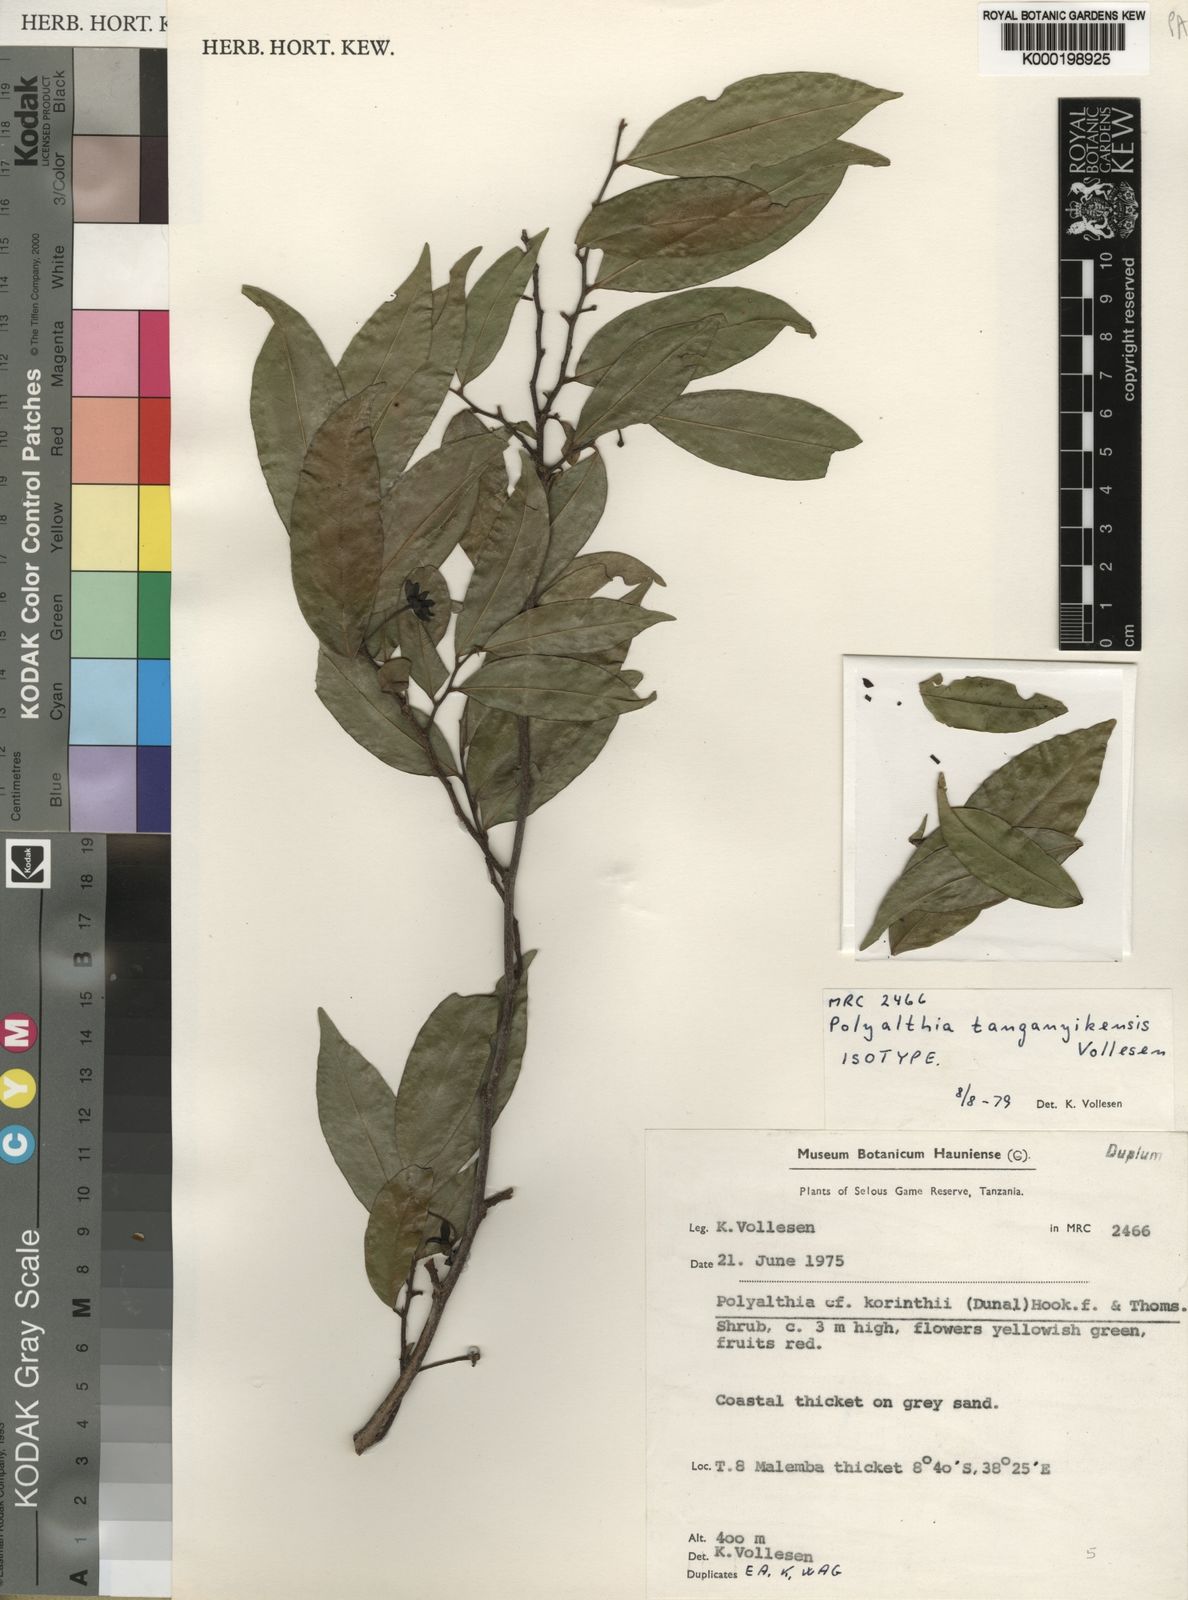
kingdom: Plantae
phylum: Tracheophyta
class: Magnoliopsida
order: Magnoliales
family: Annonaceae
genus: Hubera
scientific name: Hubera tanganyikensis
